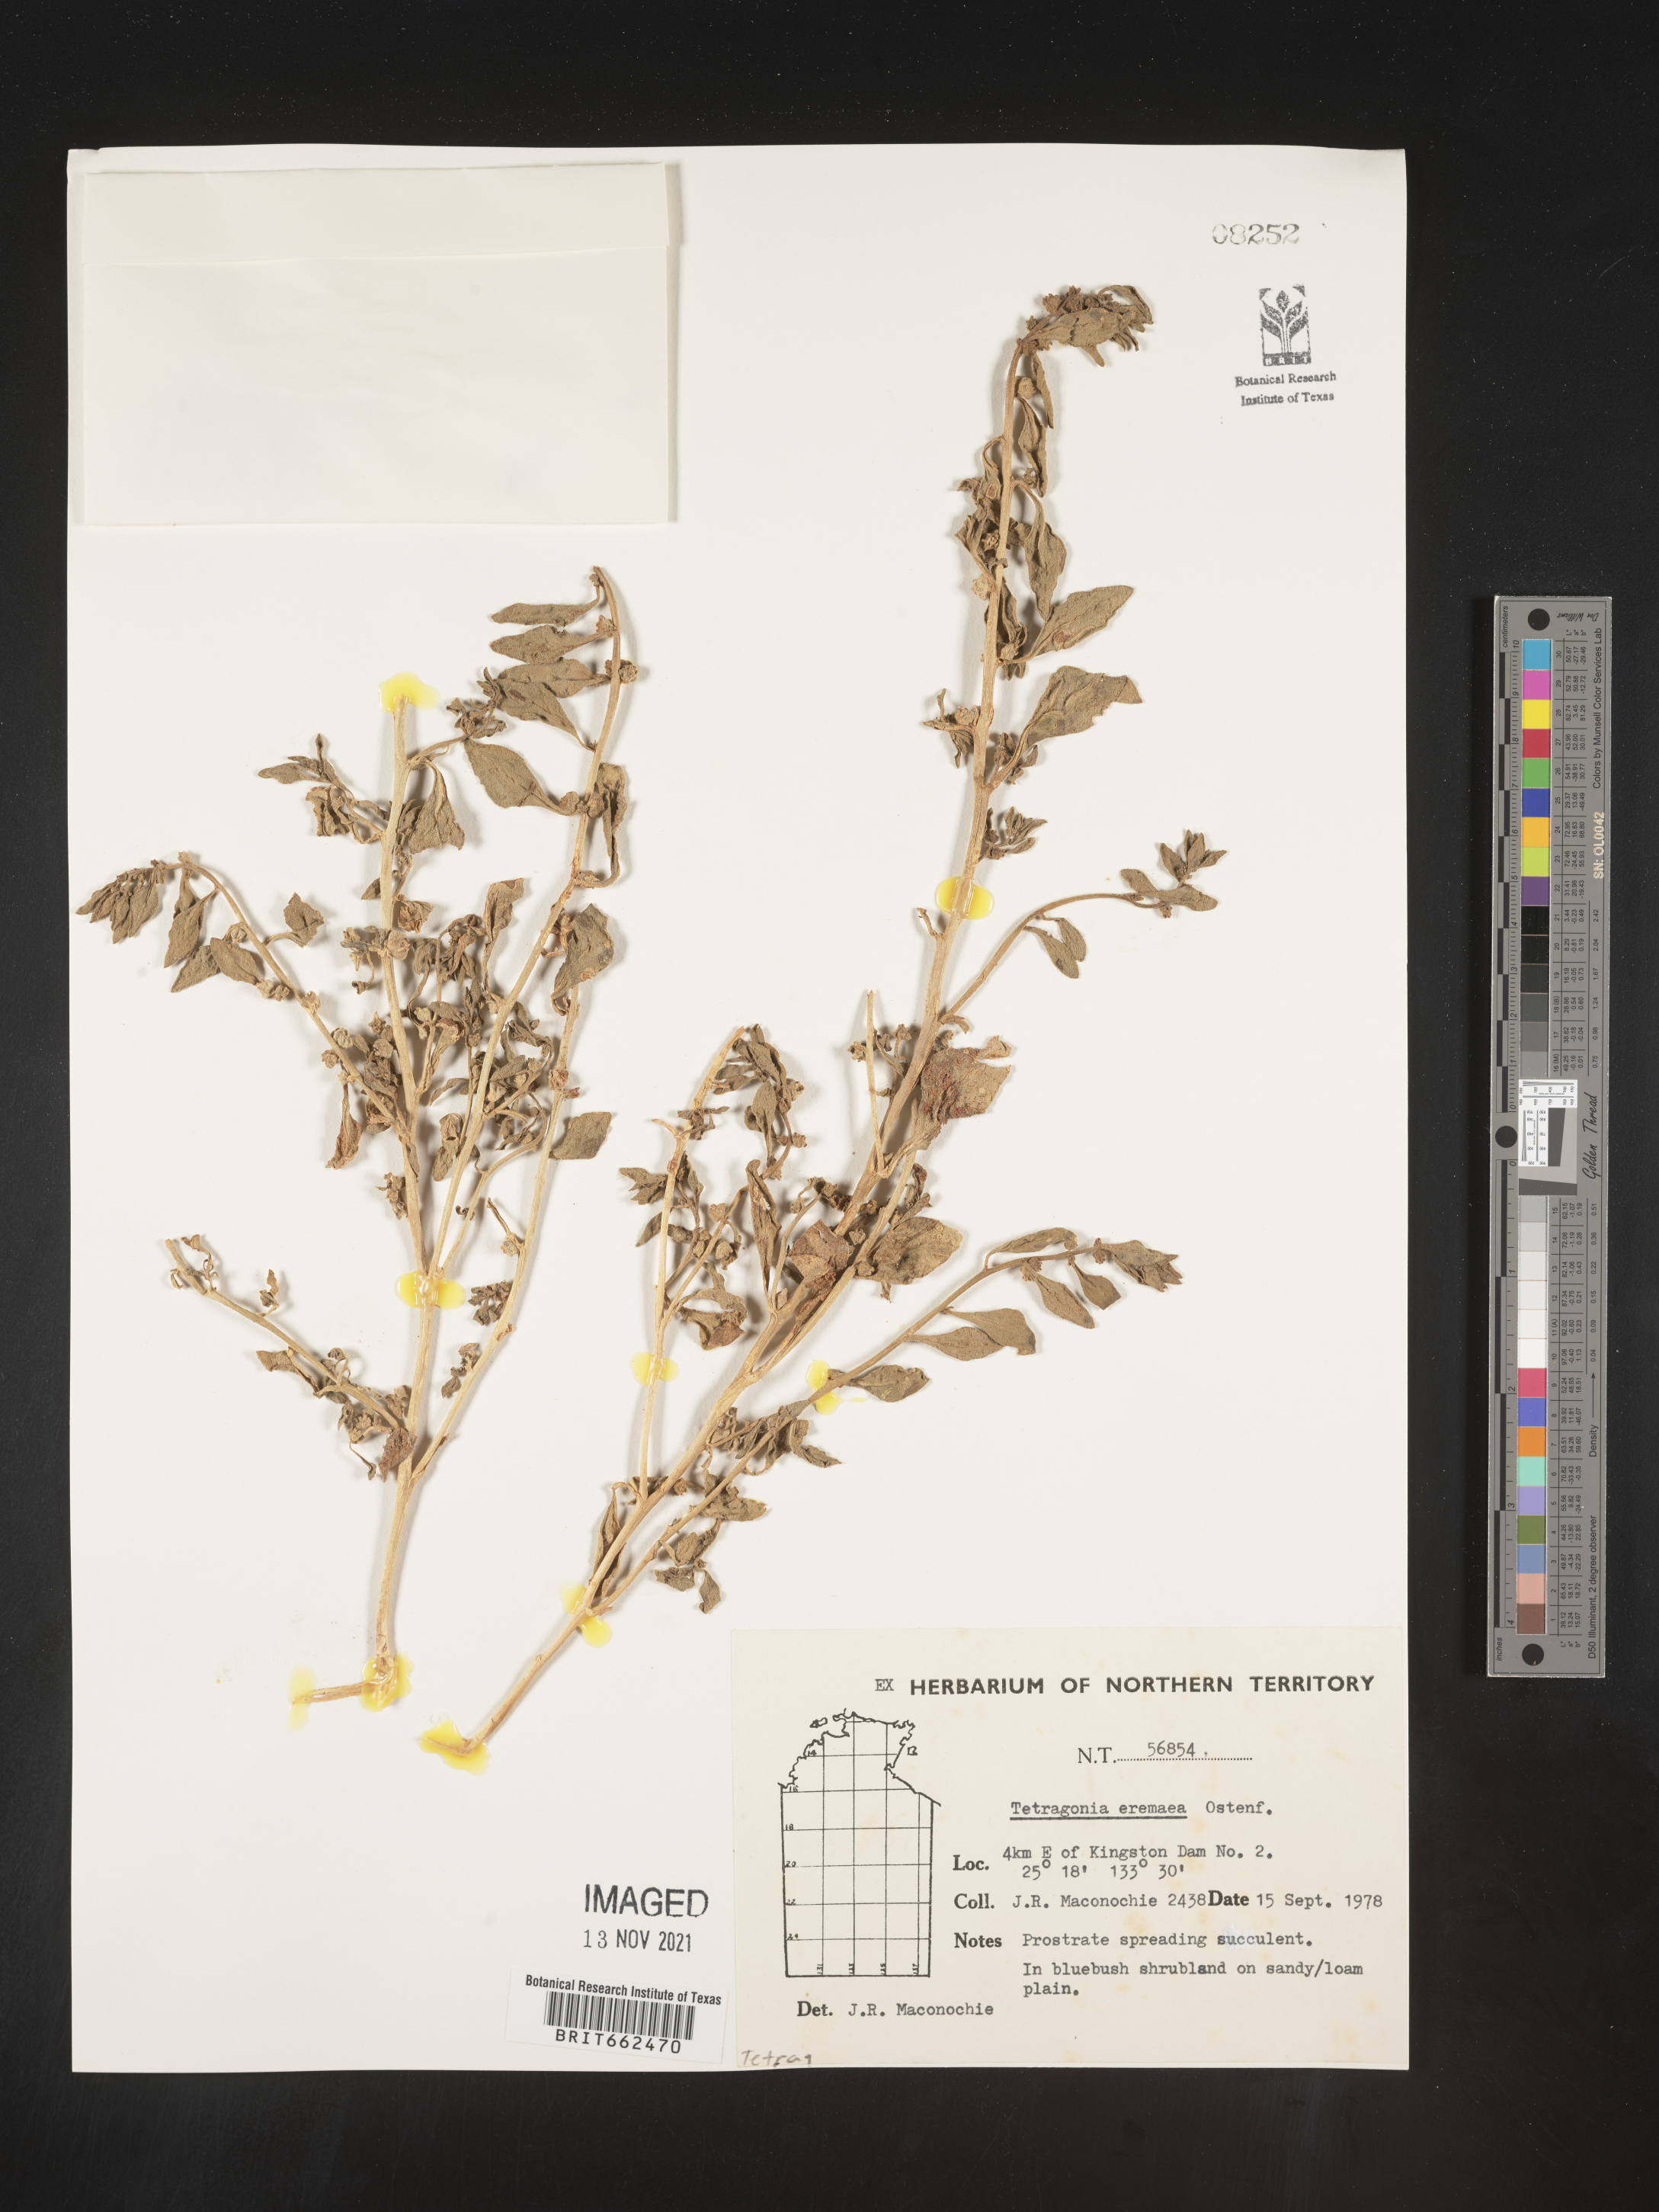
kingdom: Plantae
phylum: Tracheophyta
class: Magnoliopsida
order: Caryophyllales
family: Aizoaceae
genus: Tetragonia
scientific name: Tetragonia
